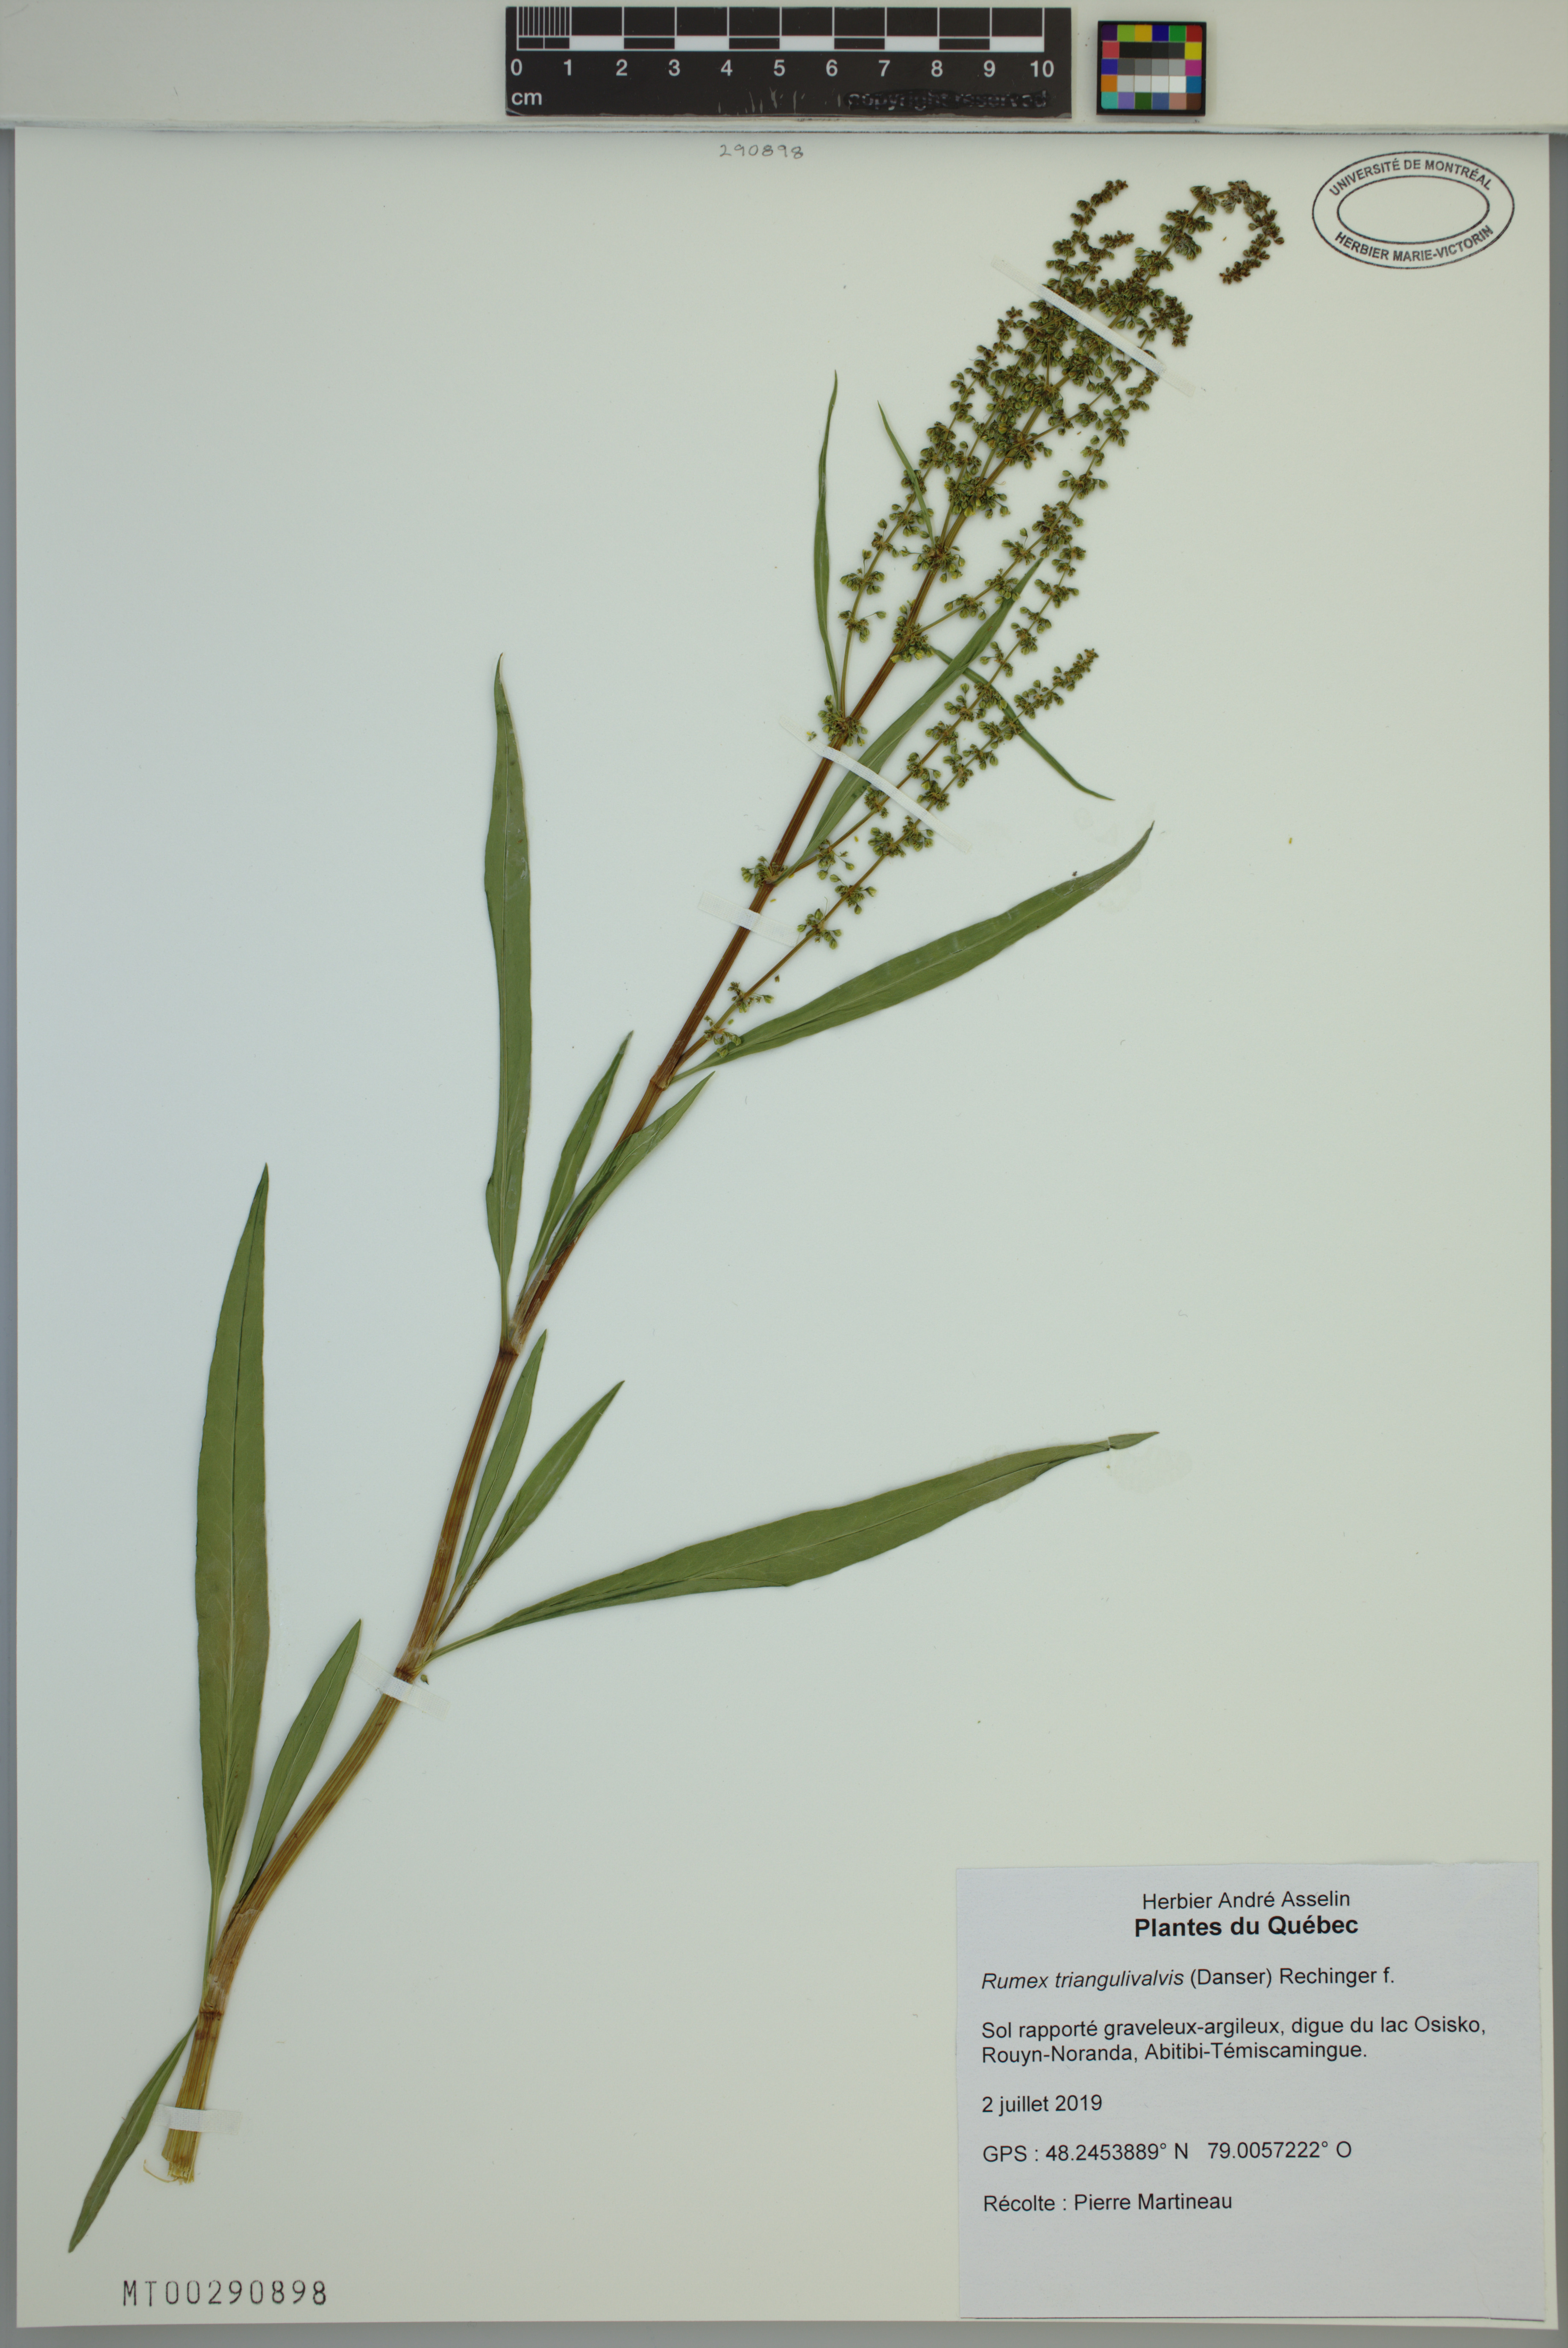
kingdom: Plantae
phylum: Tracheophyta
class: Magnoliopsida
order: Caryophyllales
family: Polygonaceae
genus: Rumex
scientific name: Rumex triangulivalvis
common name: Triangular-valve dock
